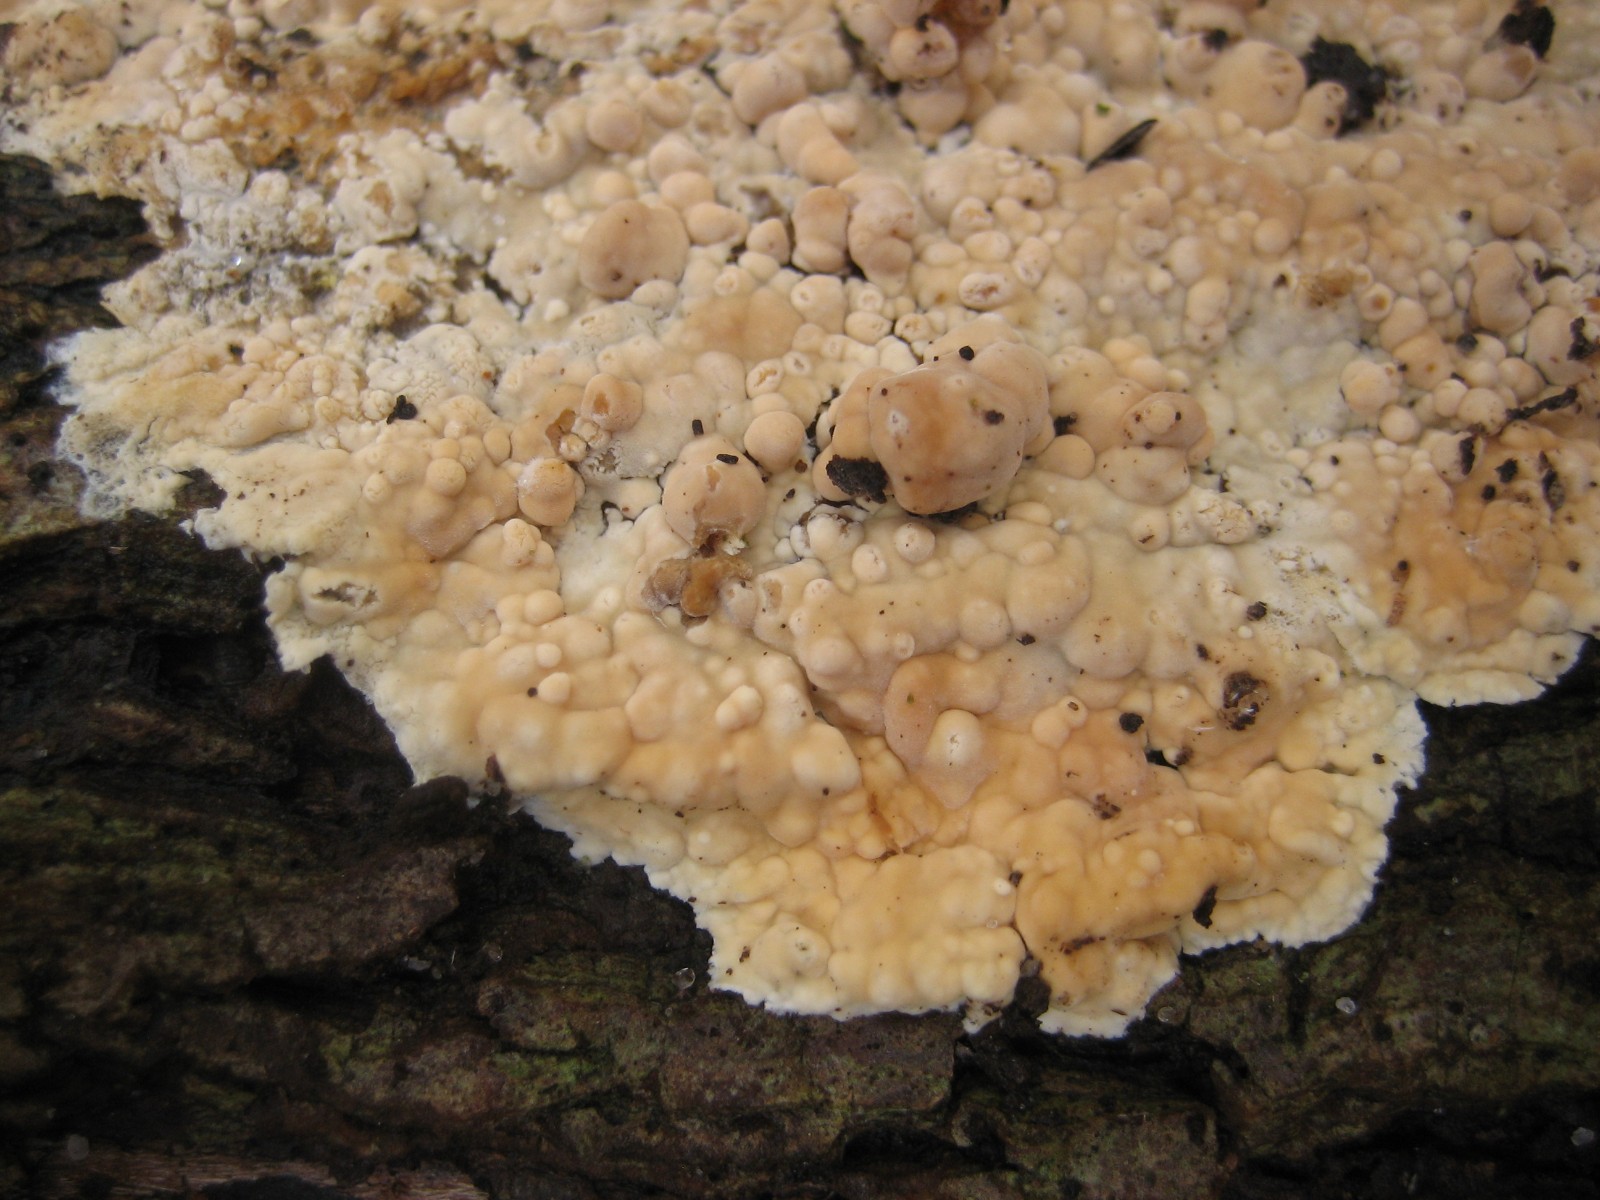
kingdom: Fungi
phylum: Basidiomycota
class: Agaricomycetes
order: Corticiales
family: Corticiaceae
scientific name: Corticiaceae
